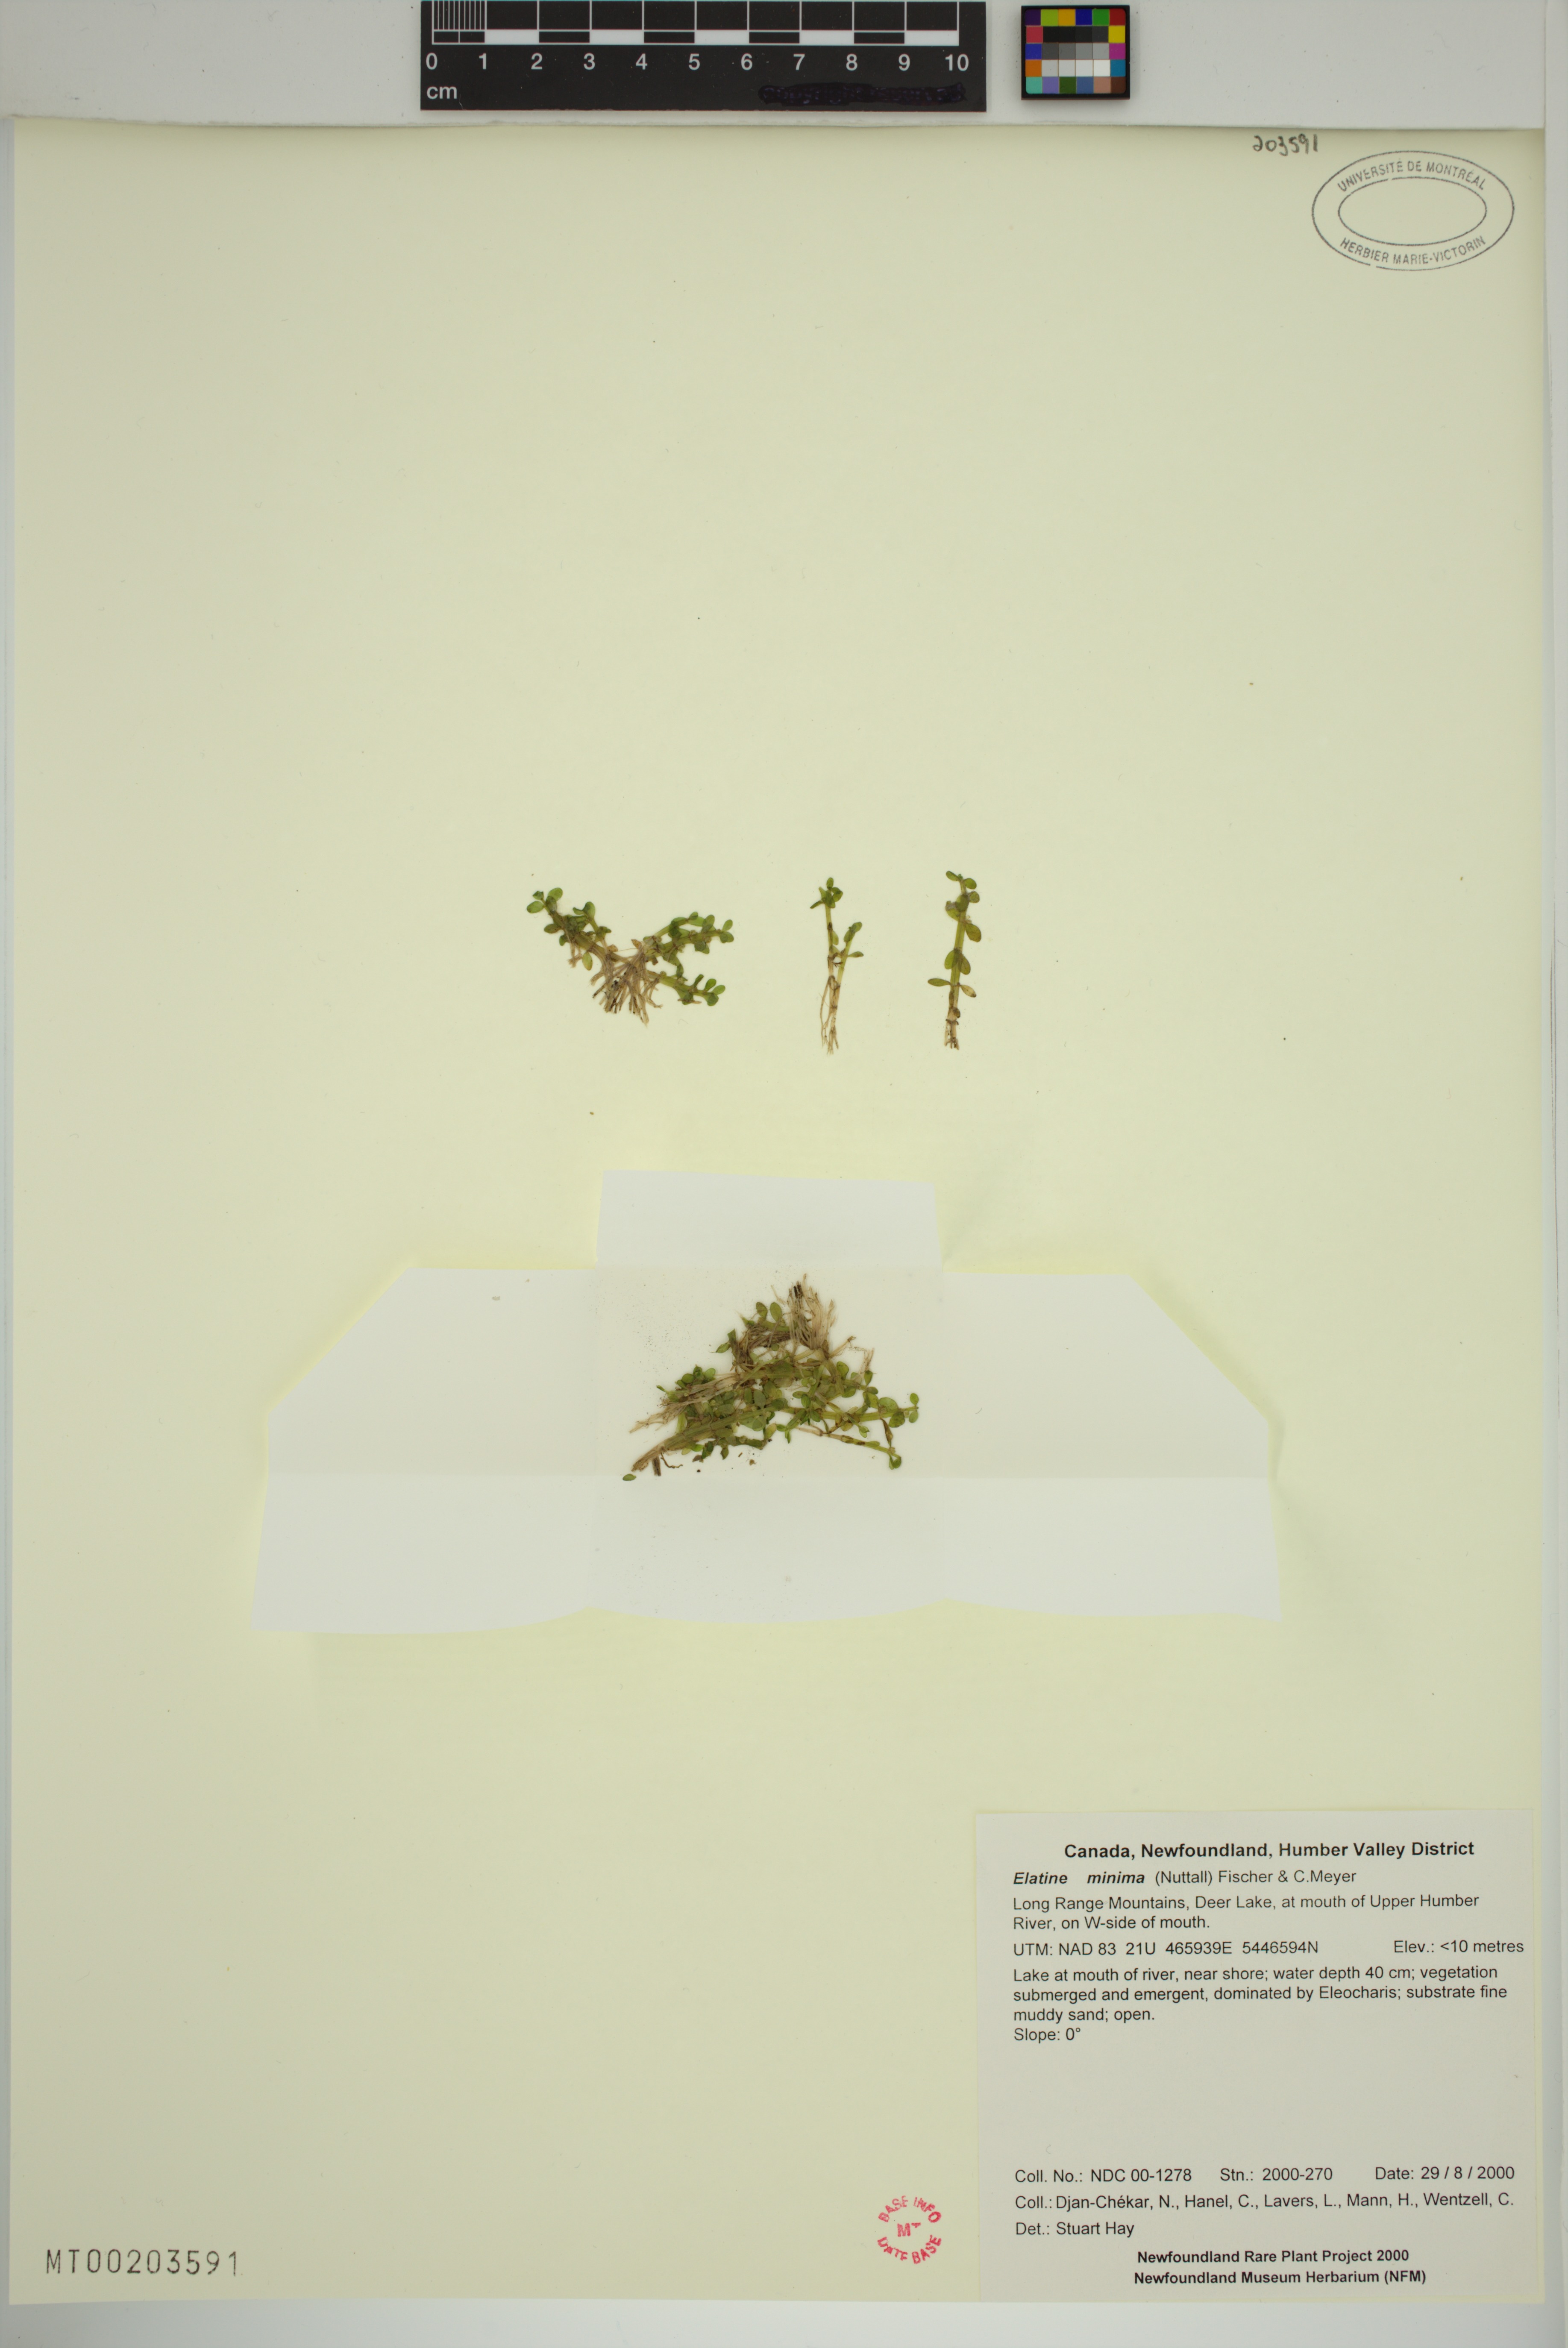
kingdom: Plantae
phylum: Tracheophyta
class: Magnoliopsida
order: Malpighiales
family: Elatinaceae
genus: Elatine
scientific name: Elatine minima
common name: Small waterwort
